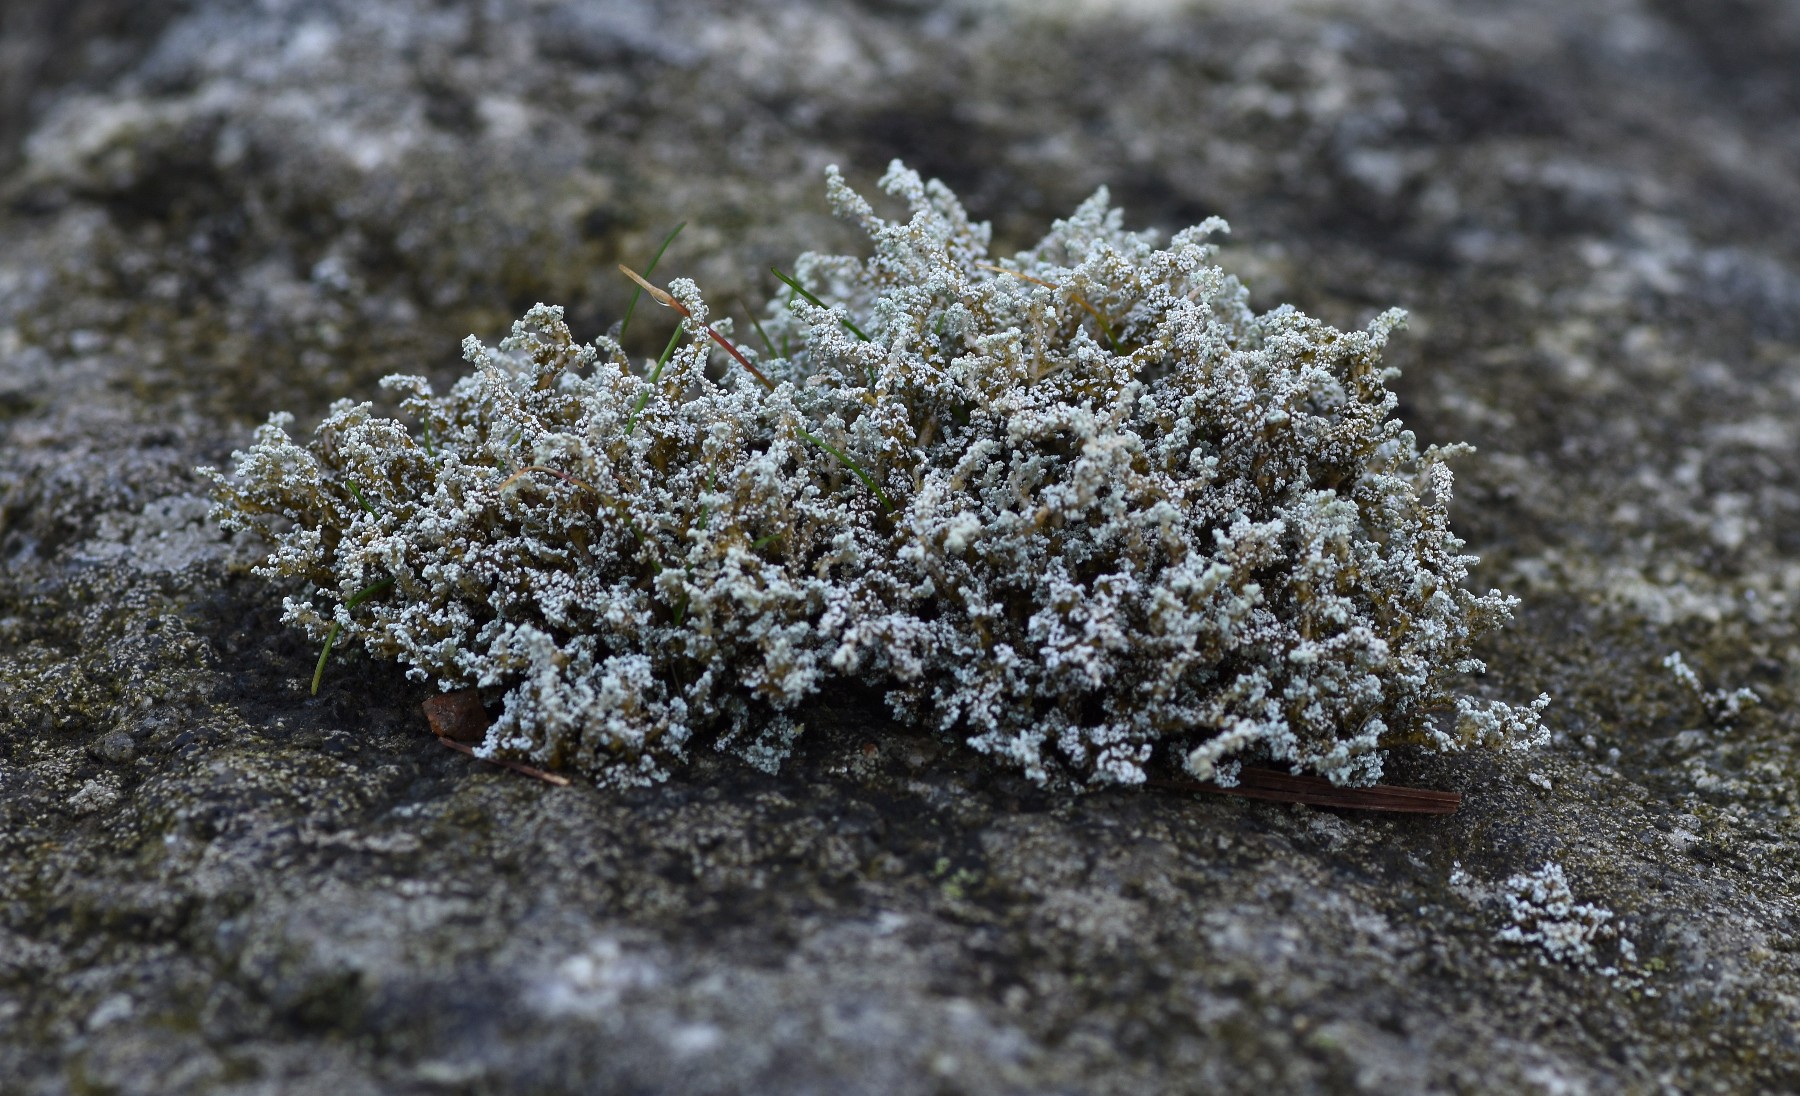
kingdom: Fungi
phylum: Ascomycota
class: Lecanoromycetes
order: Lecanorales
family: Stereocaulaceae
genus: Stereocaulon
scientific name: Stereocaulon vesuvianum
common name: skjold-korallav
